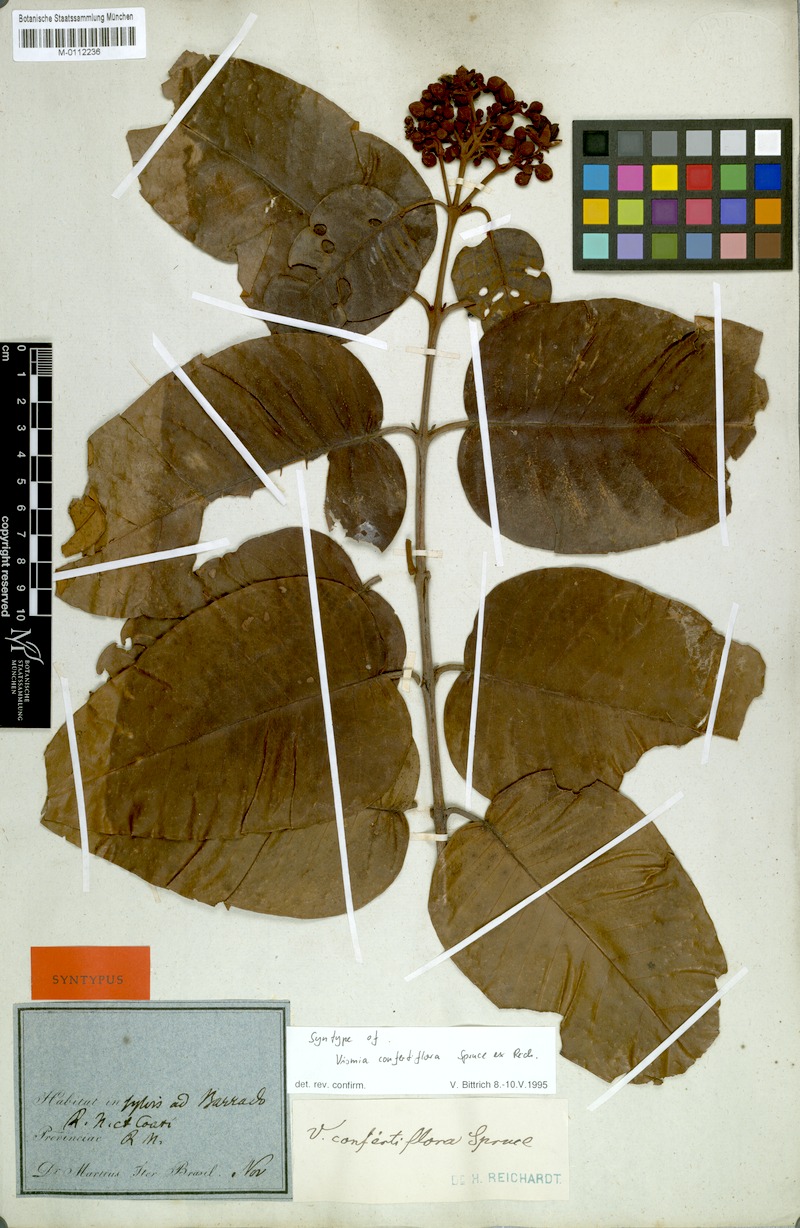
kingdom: Plantae
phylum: Tracheophyta
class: Magnoliopsida
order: Malpighiales
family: Hypericaceae
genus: Vismia
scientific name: Vismia baccifera
